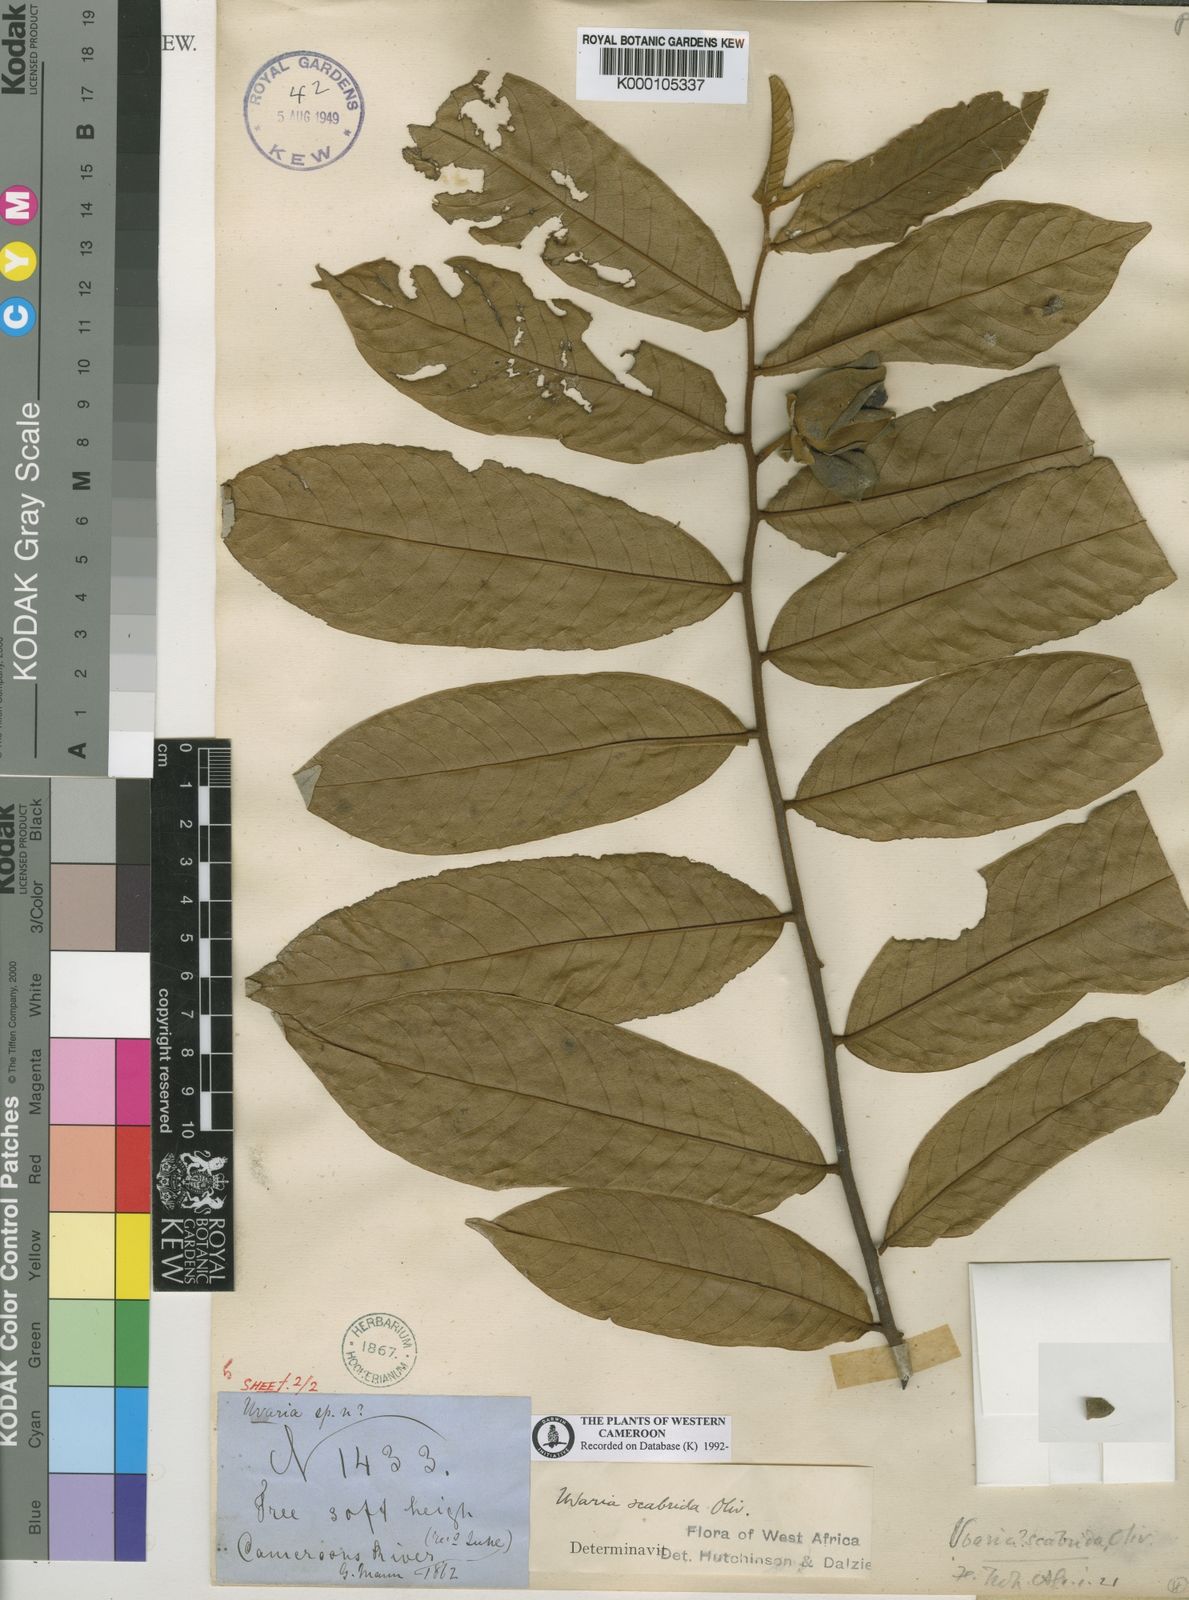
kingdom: Plantae
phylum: Tracheophyta
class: Magnoliopsida
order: Magnoliales
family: Annonaceae
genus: Uvaria
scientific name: Uvaria scabrida
